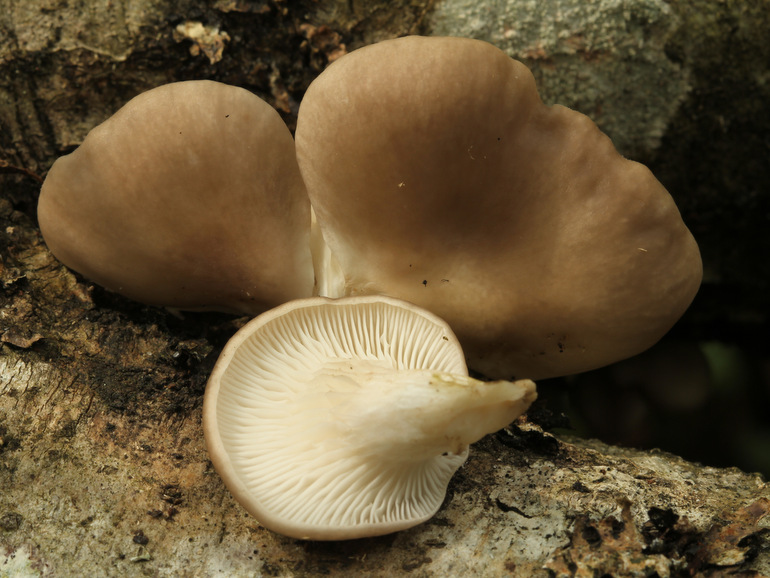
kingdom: Fungi
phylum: Basidiomycota
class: Agaricomycetes
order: Agaricales
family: Pleurotaceae
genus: Pleurotus
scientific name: Pleurotus ostreatus
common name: Oyster mushroom
